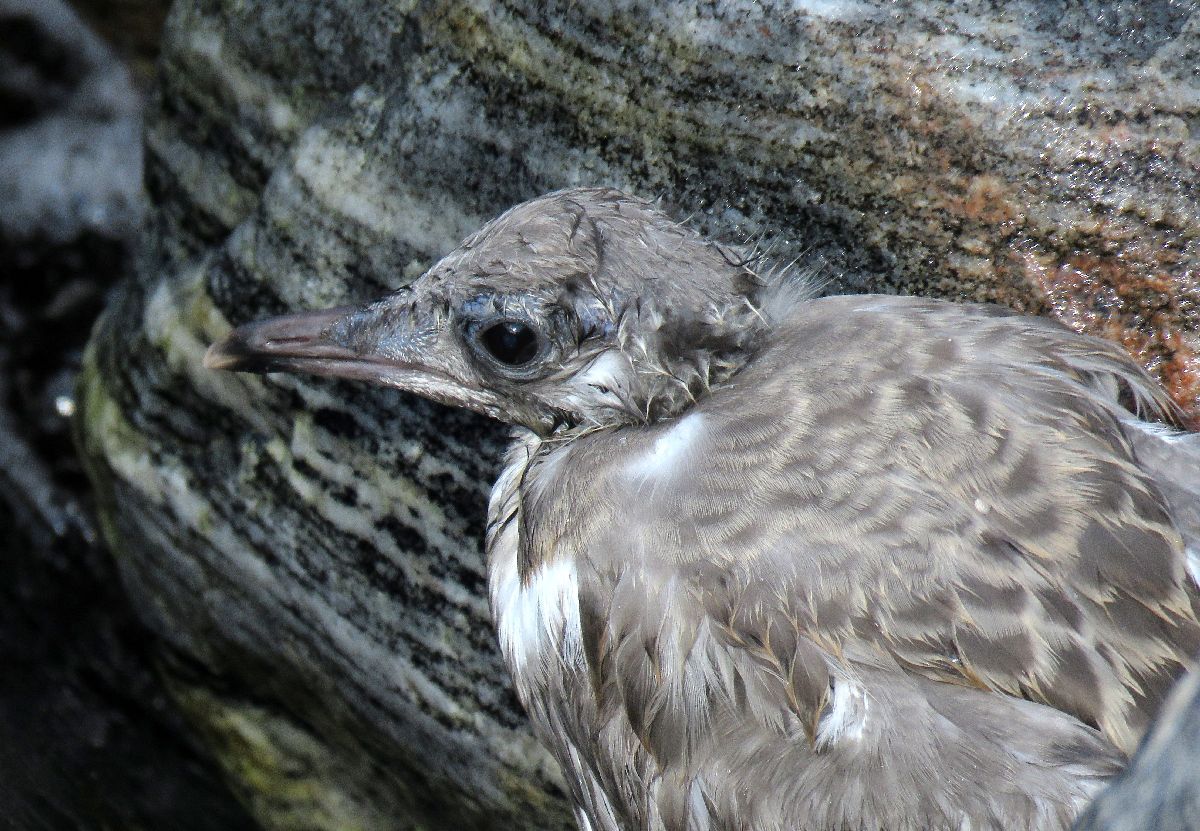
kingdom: Animalia
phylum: Chordata
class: Aves
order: Charadriiformes
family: Laridae
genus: Larus
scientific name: Larus canus
